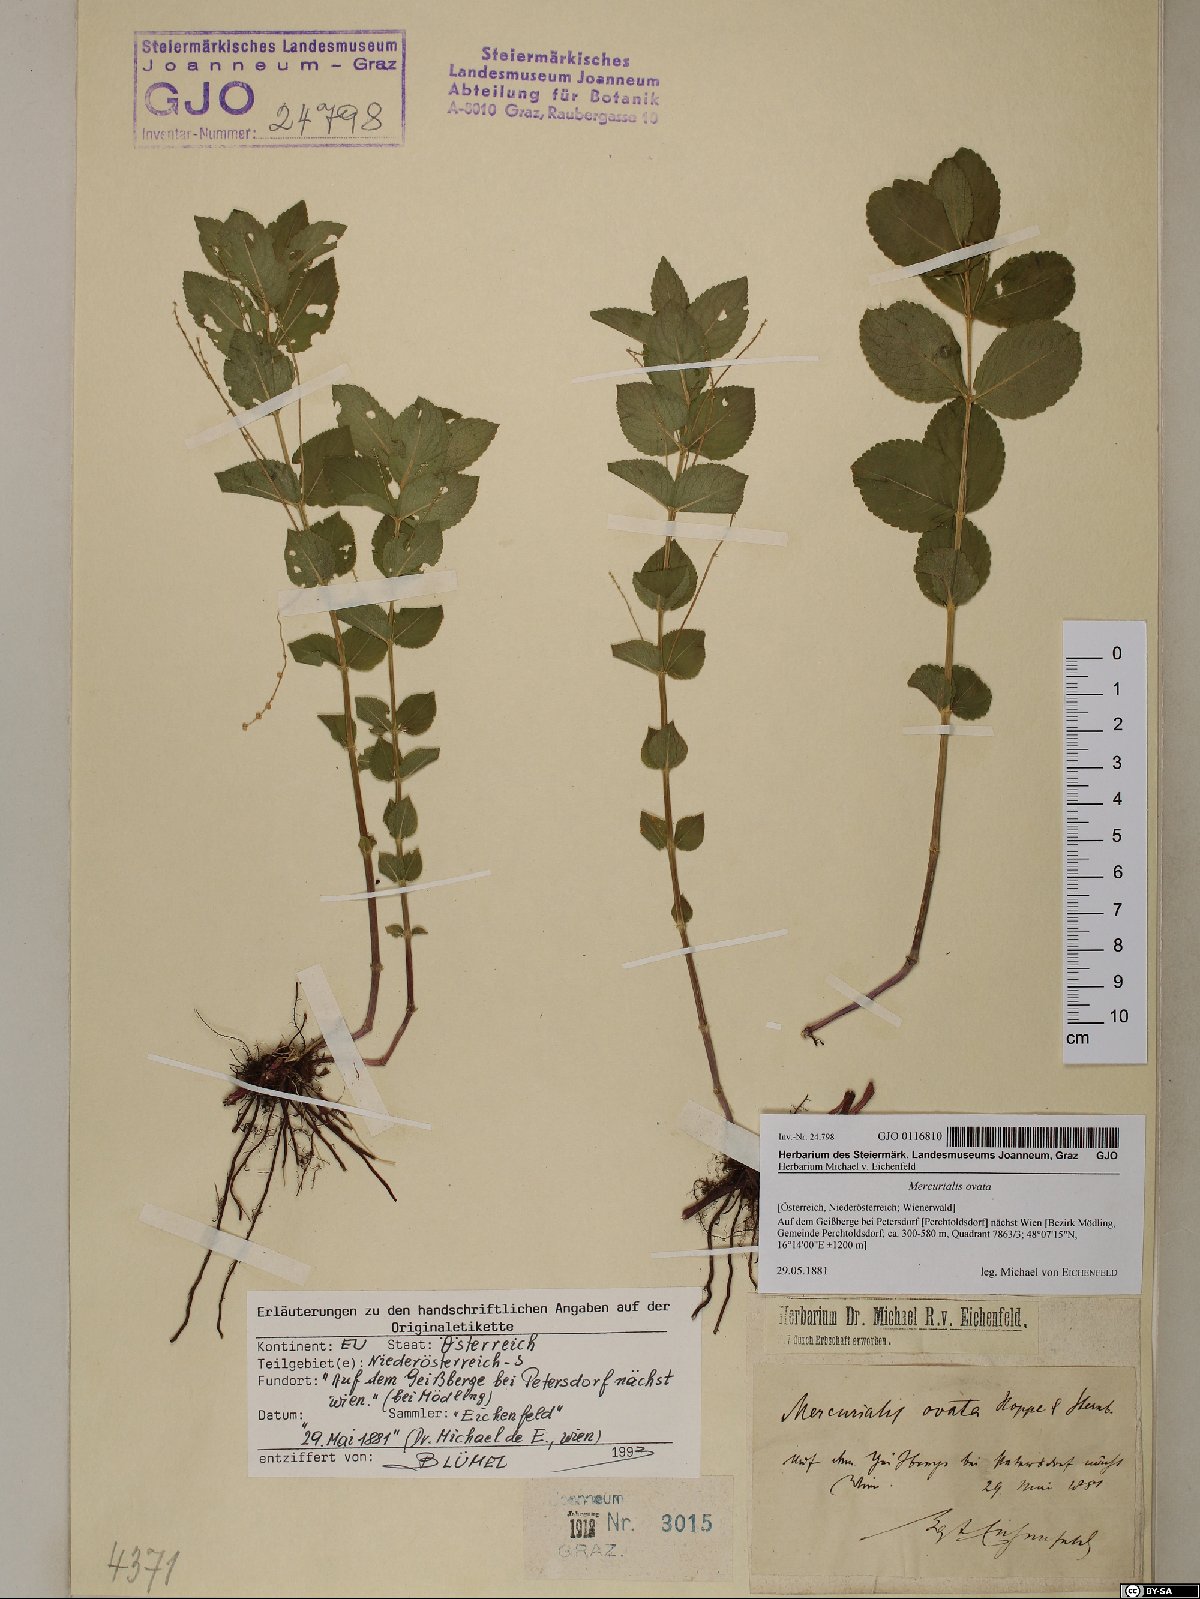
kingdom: Plantae
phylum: Tracheophyta
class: Magnoliopsida
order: Malpighiales
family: Euphorbiaceae
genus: Mercurialis
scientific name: Mercurialis ovata
